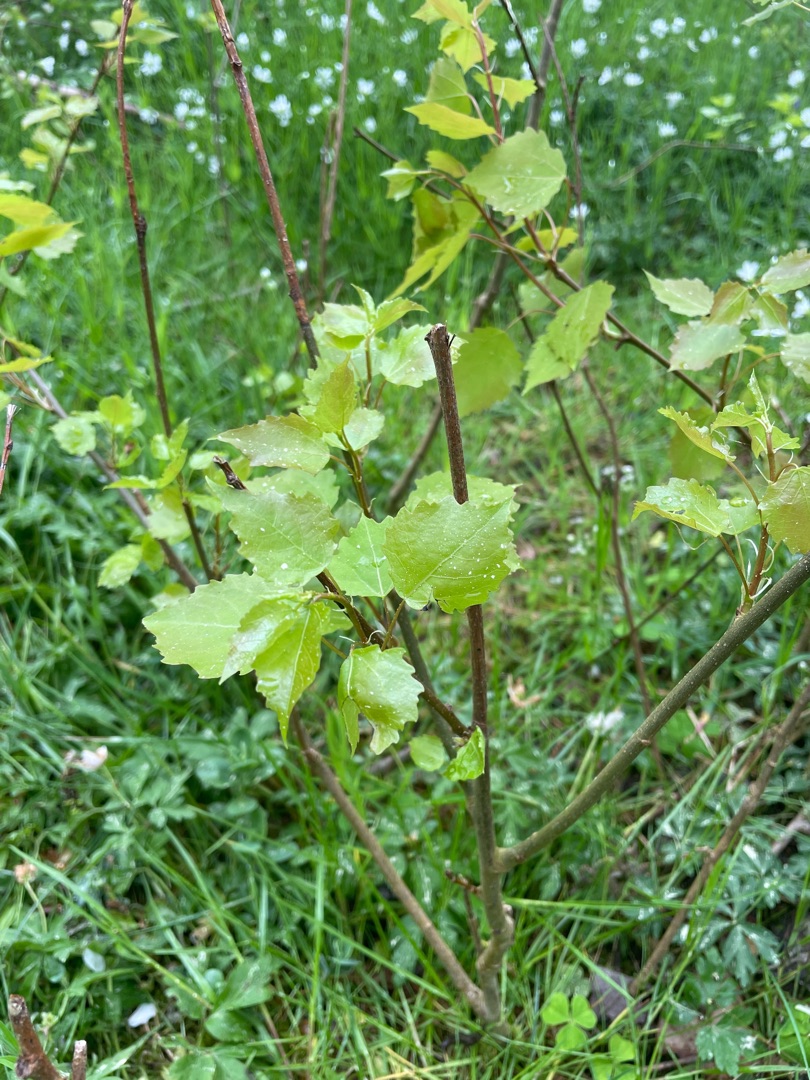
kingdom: Plantae
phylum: Tracheophyta
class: Magnoliopsida
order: Malpighiales
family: Salicaceae
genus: Populus
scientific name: Populus tremula
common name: Bævreasp
